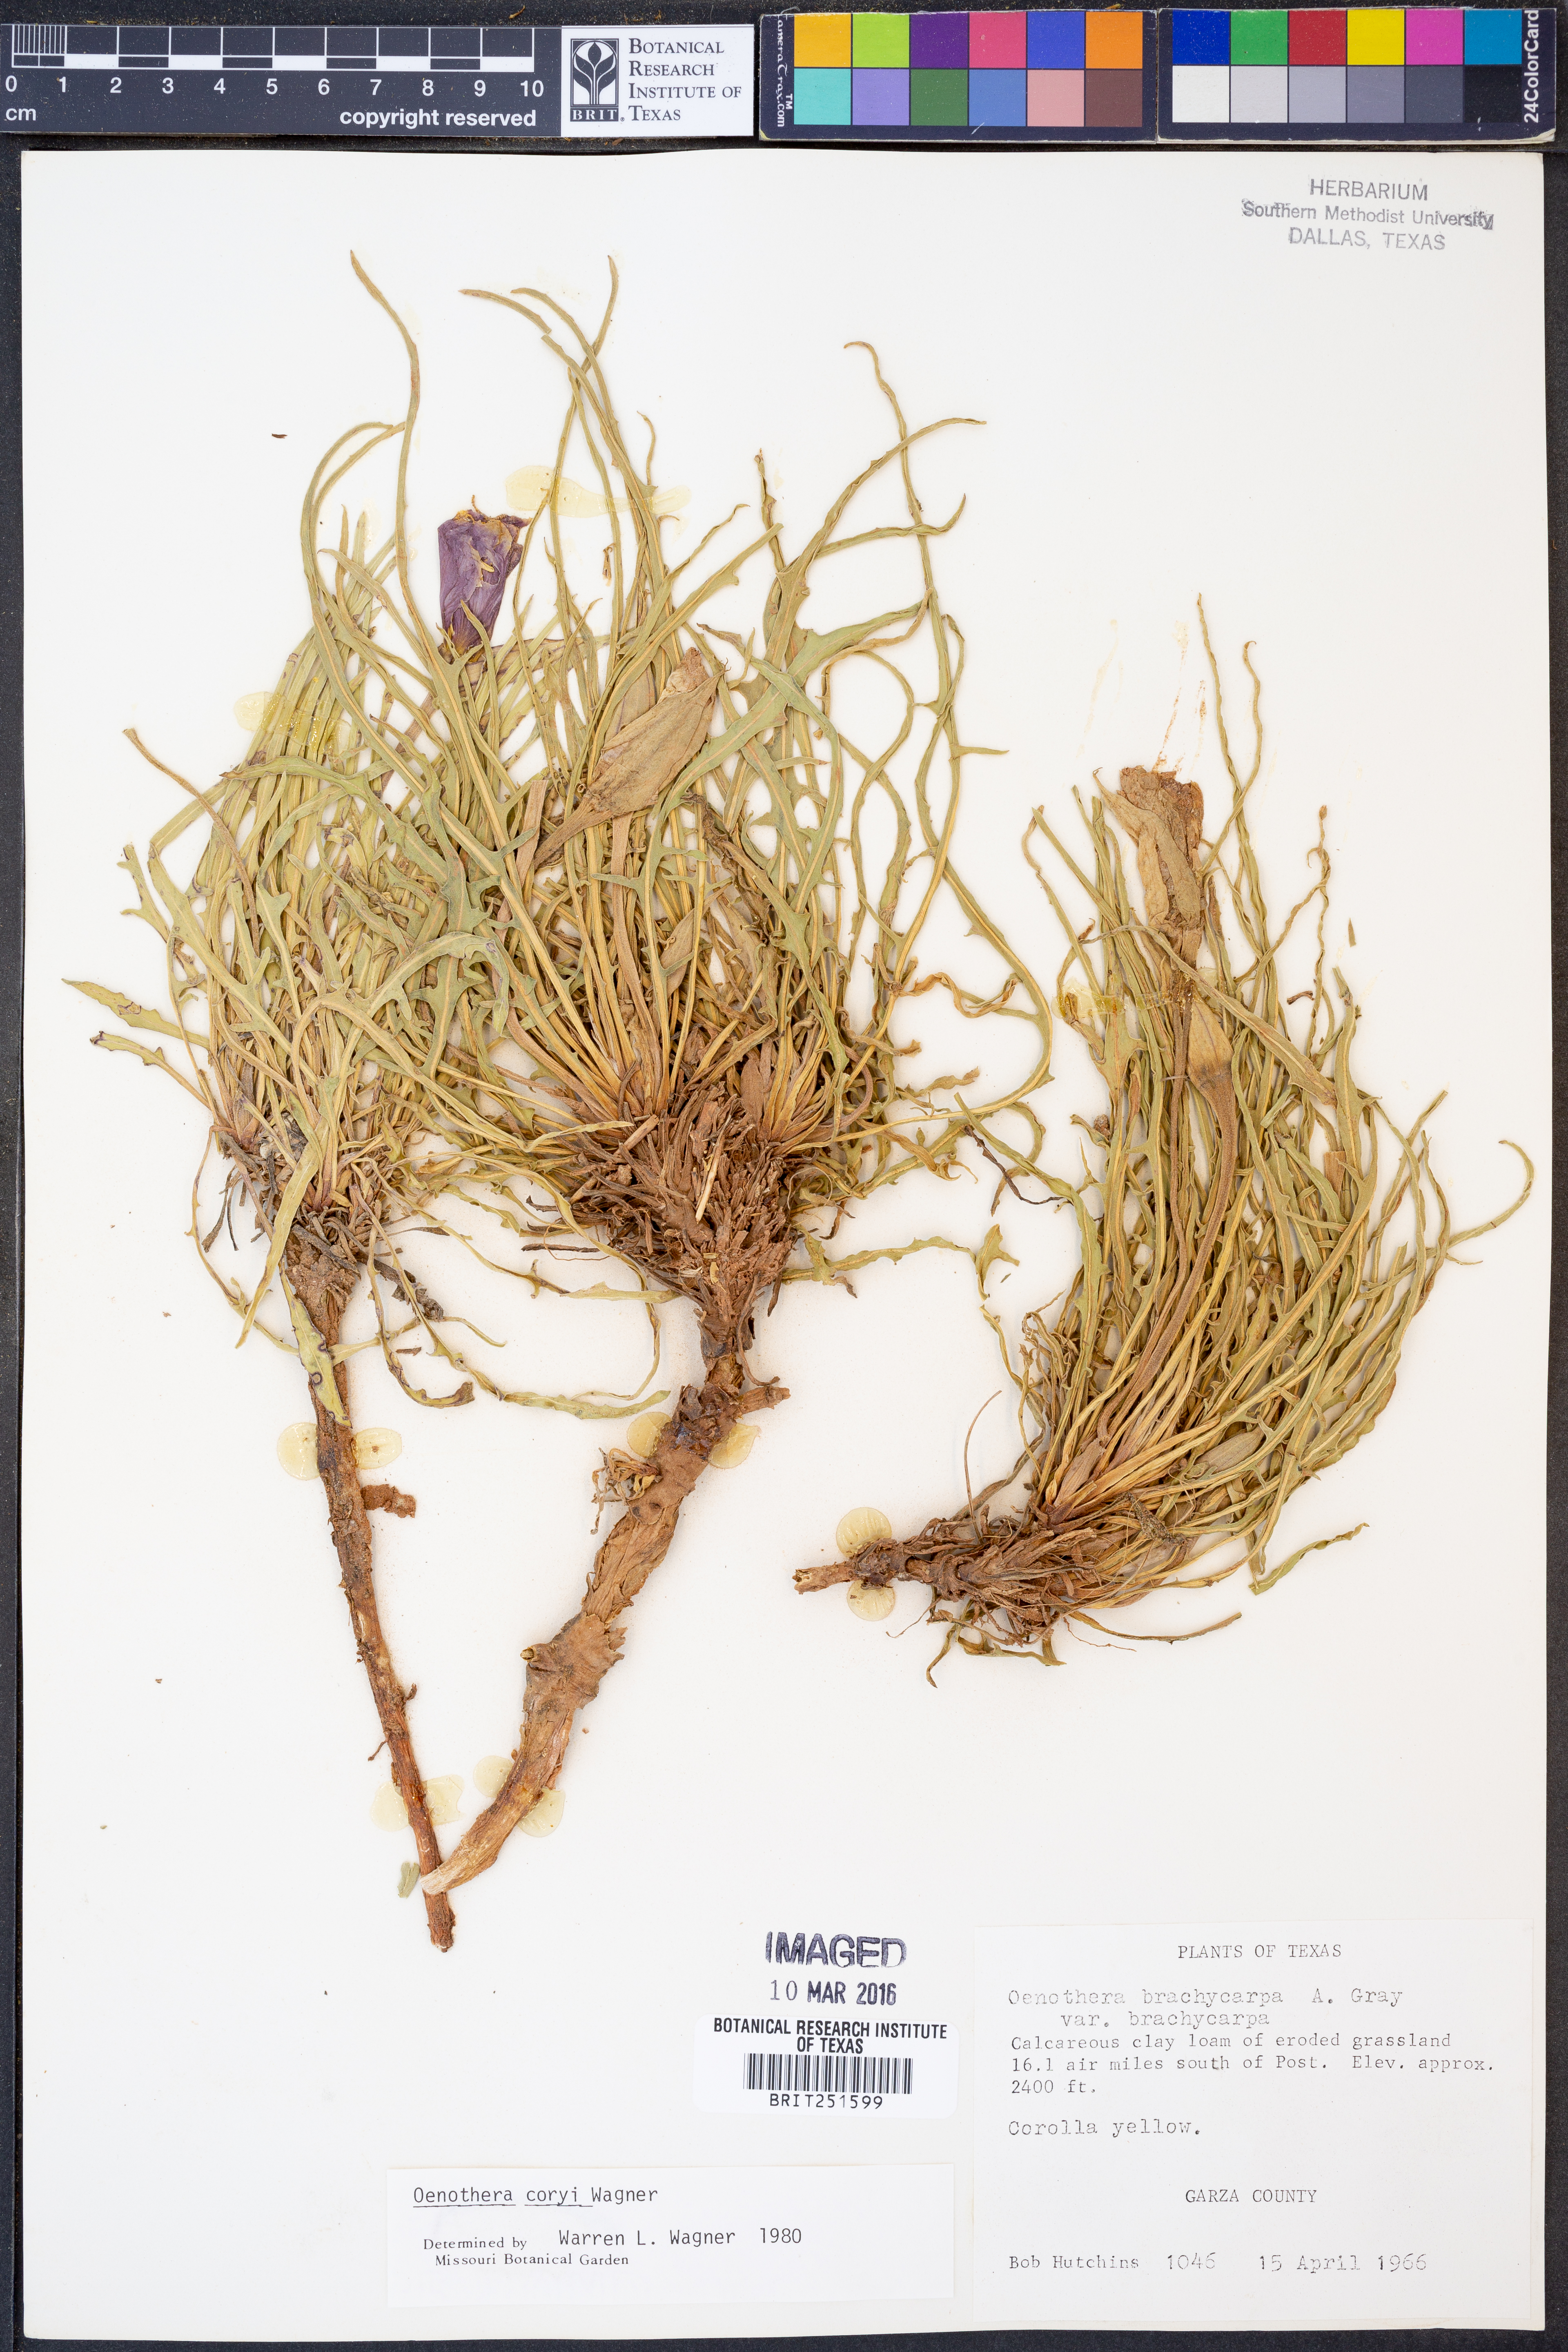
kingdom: Plantae
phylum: Tracheophyta
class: Magnoliopsida
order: Myrtales
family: Onagraceae
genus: Oenothera
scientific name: Oenothera coryi
